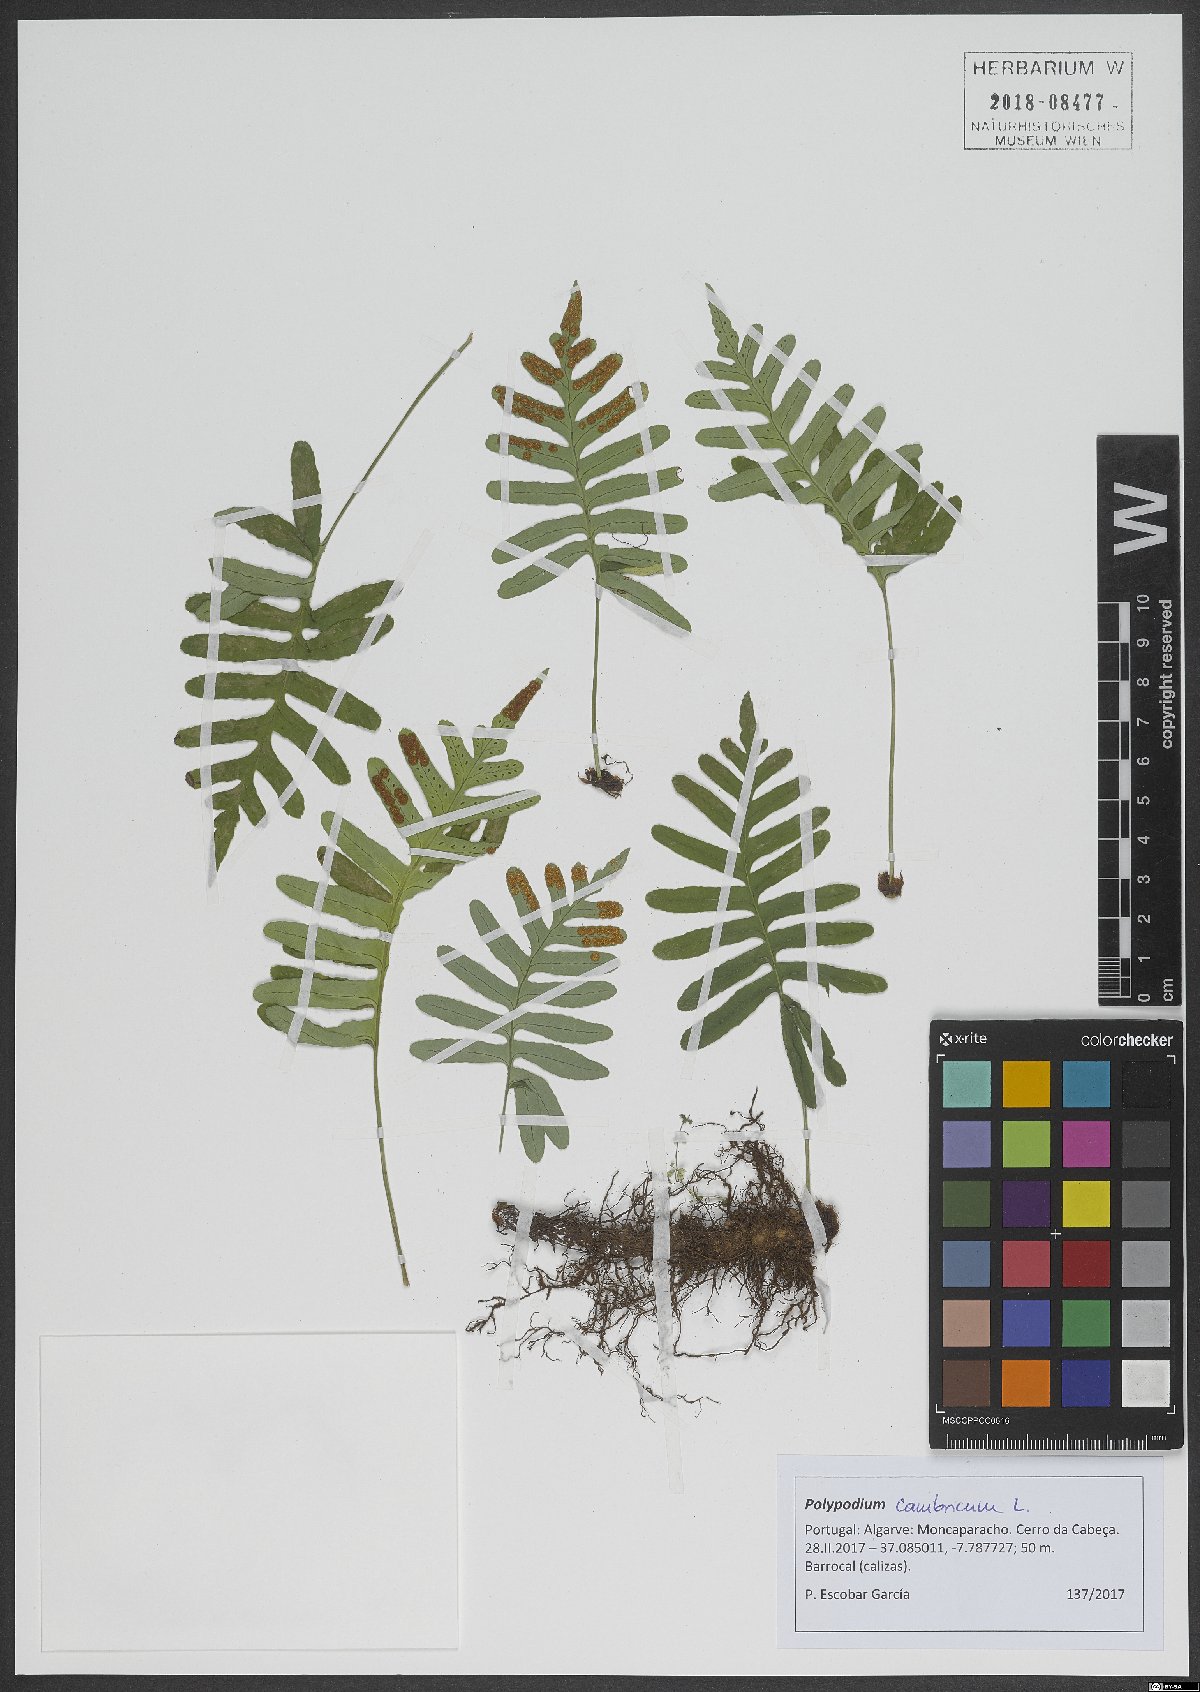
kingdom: Plantae
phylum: Tracheophyta
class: Polypodiopsida
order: Polypodiales
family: Polypodiaceae
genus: Polypodium
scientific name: Polypodium cambricum
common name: Southern polypody
